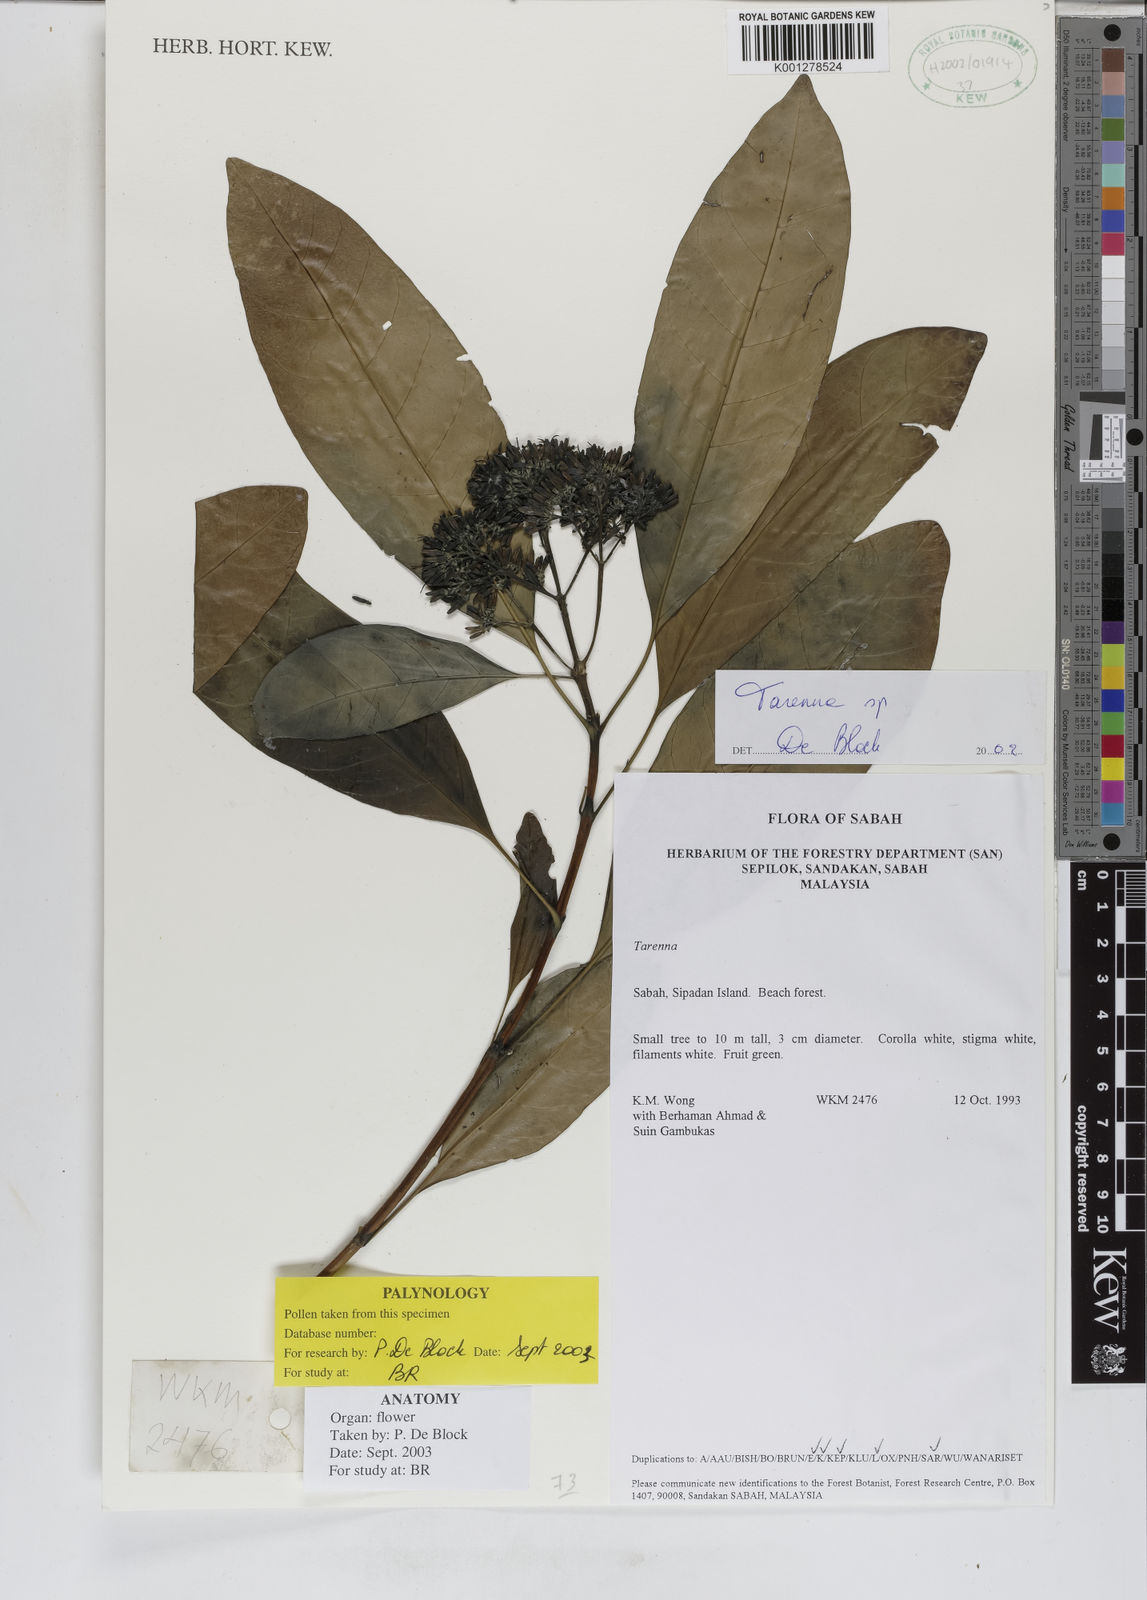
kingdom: Plantae
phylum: Tracheophyta
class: Magnoliopsida
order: Gentianales
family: Rubiaceae
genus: Tarenna
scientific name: Tarenna
